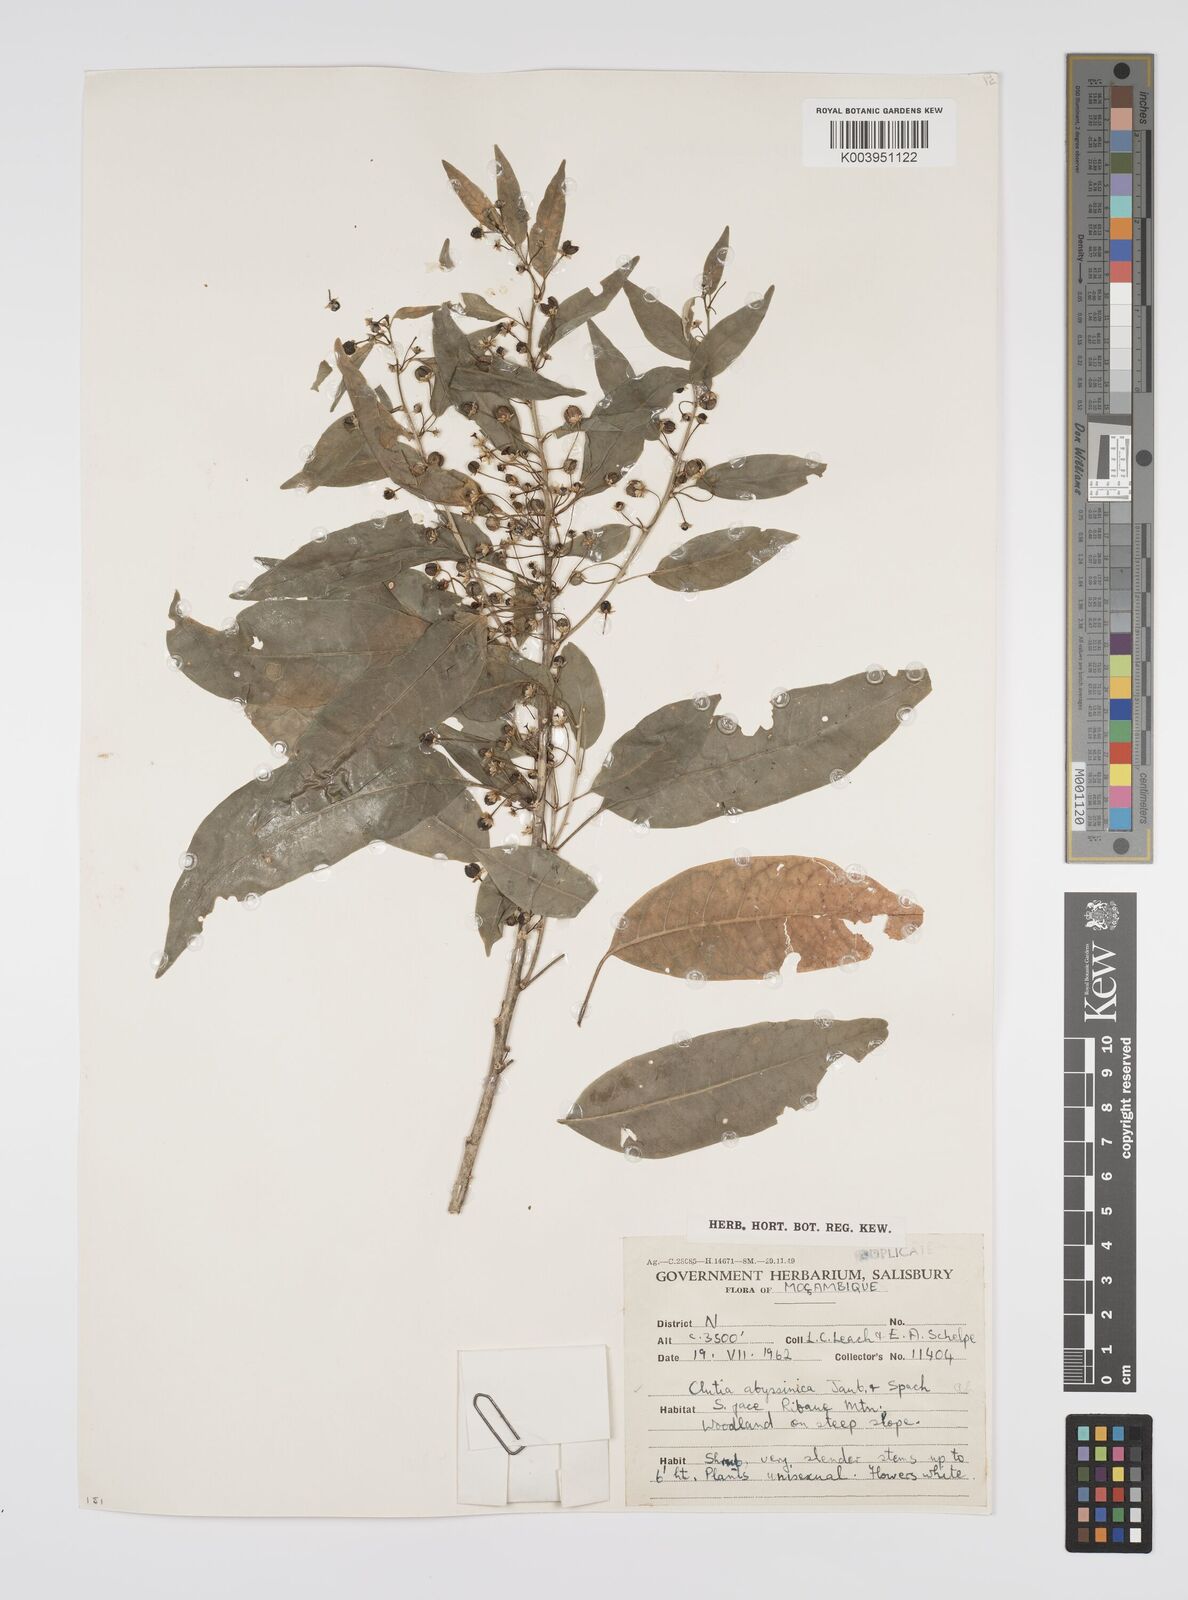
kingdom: Plantae
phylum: Tracheophyta
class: Magnoliopsida
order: Malpighiales
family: Peraceae
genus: Clutia
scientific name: Clutia abyssinica
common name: Large lightning bush
